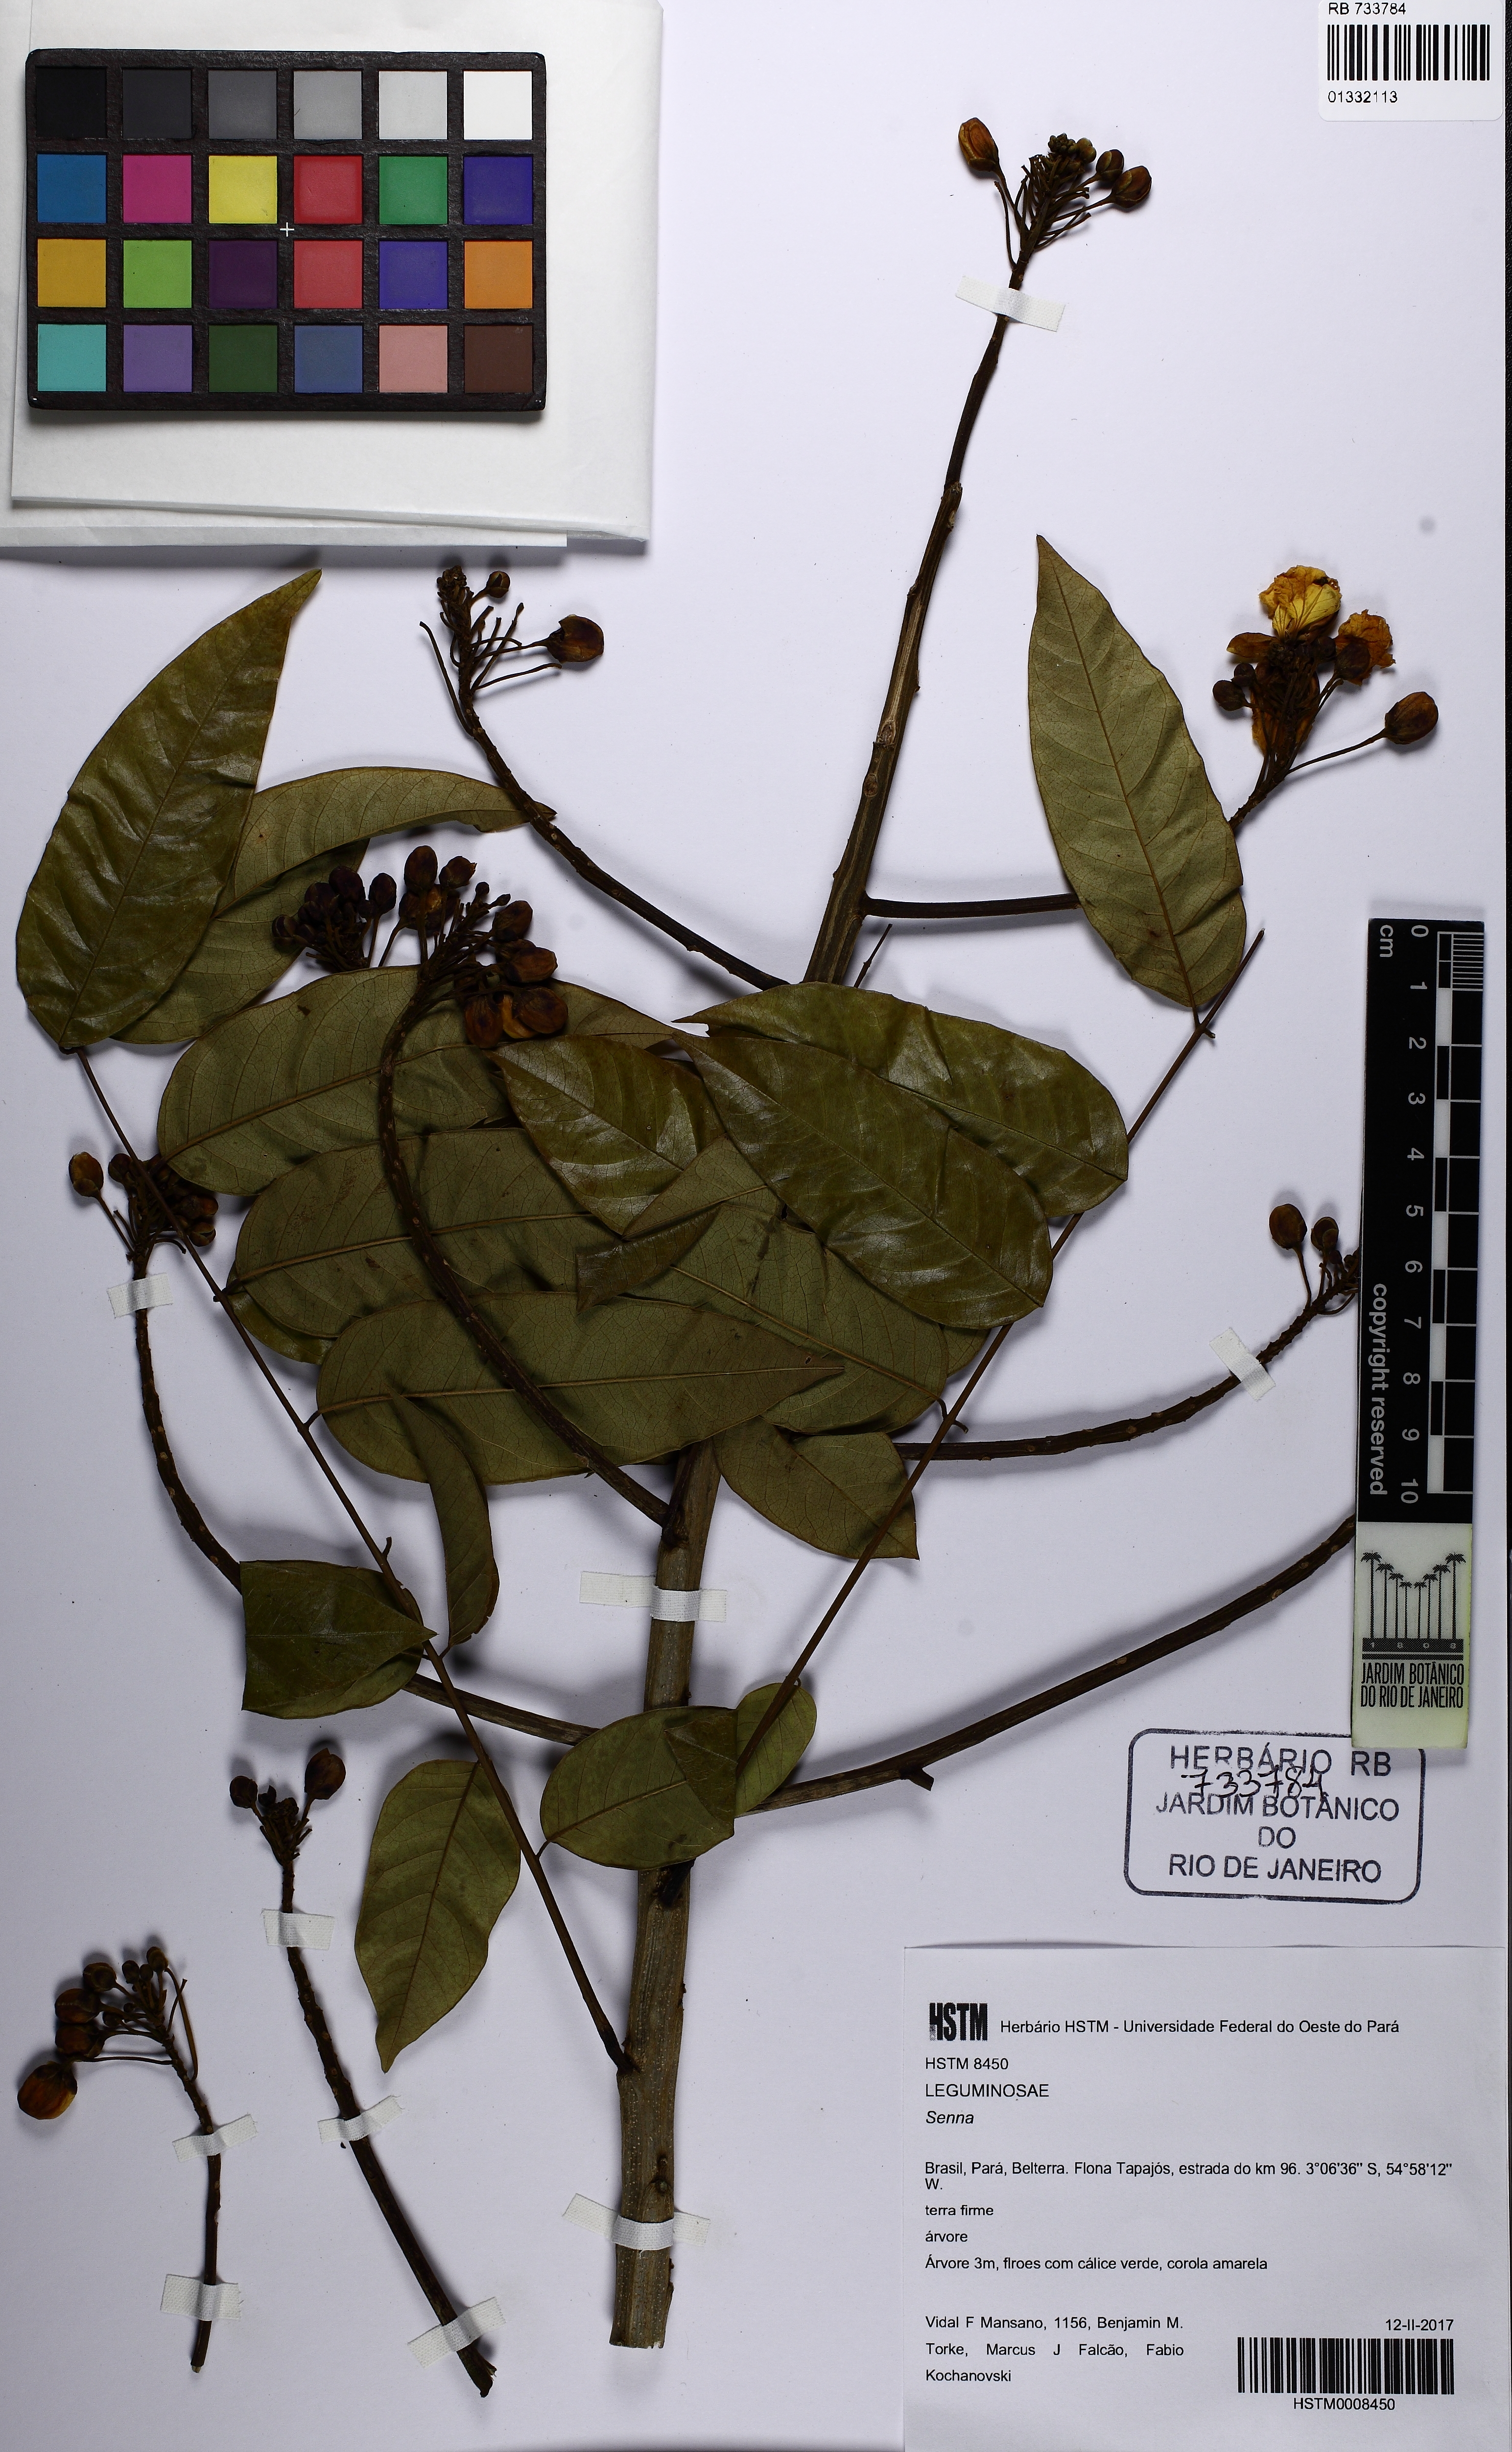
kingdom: Plantae
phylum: Tracheophyta
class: Magnoliopsida
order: Fabales
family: Fabaceae
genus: Senna
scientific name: Senna
